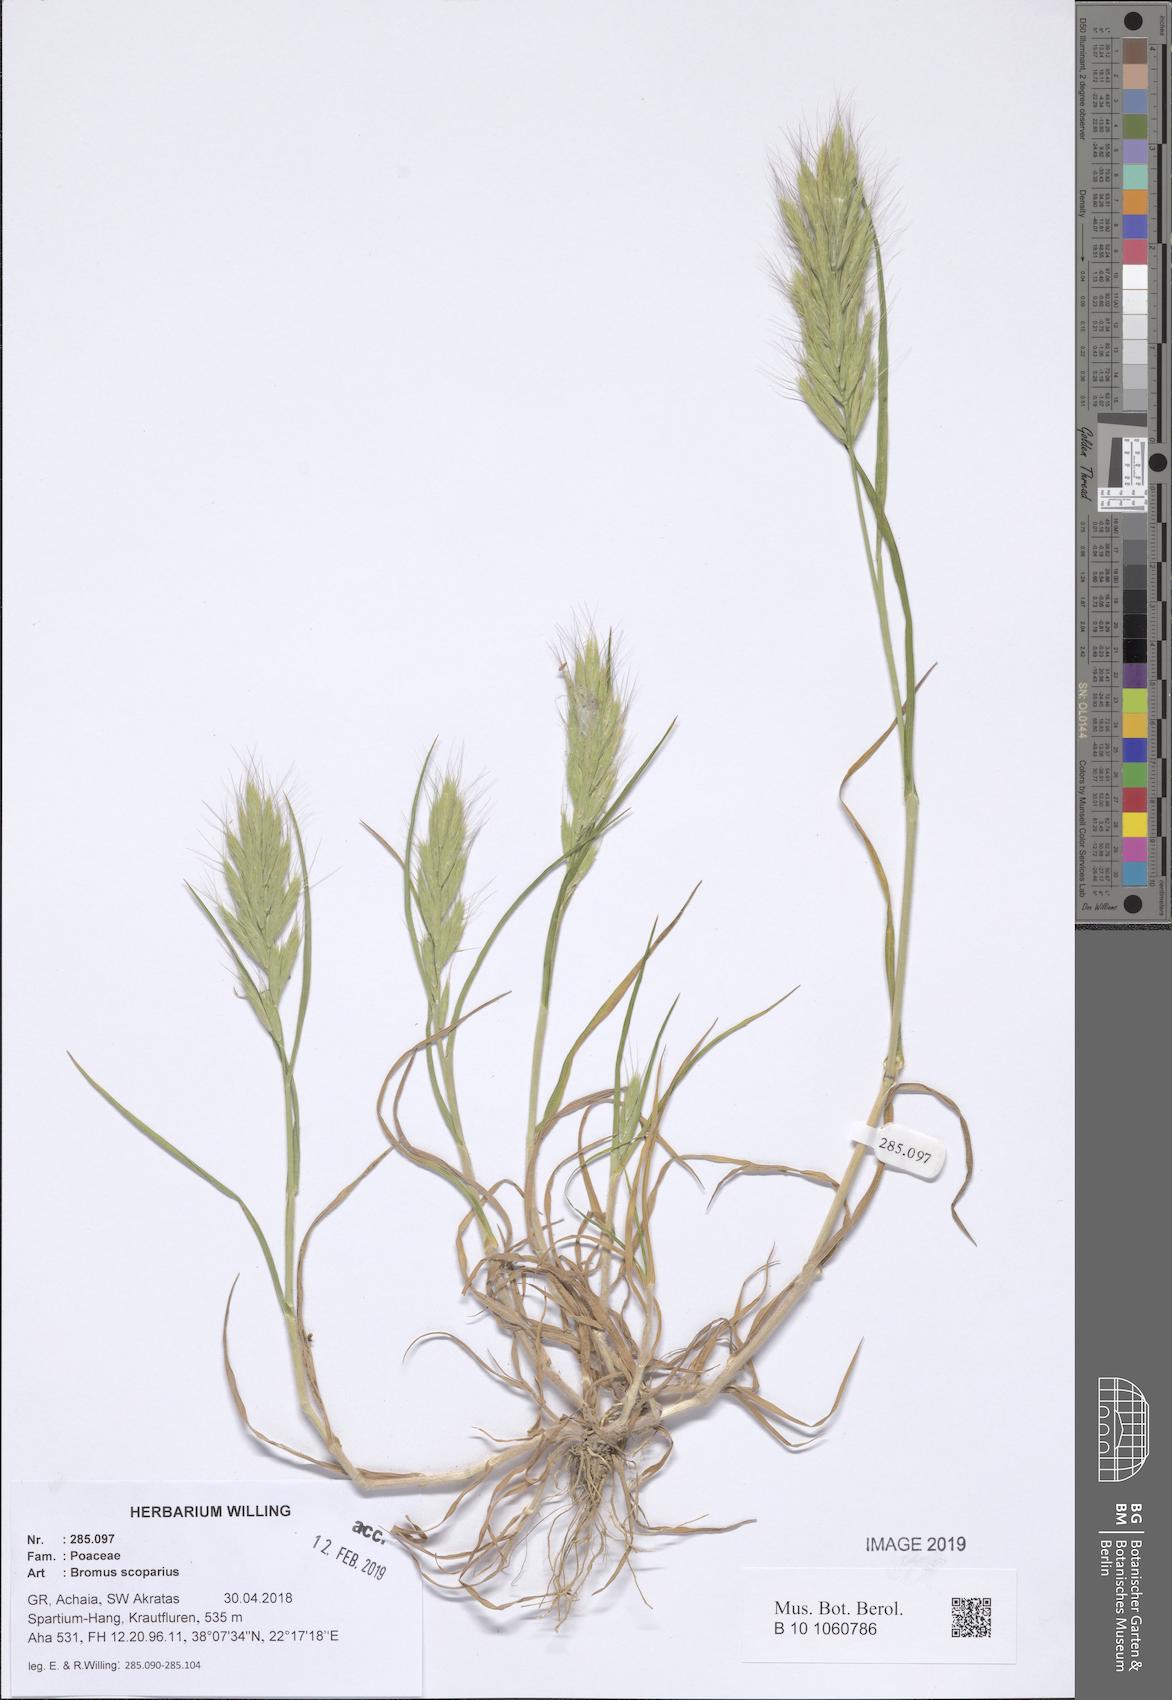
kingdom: Plantae
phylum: Tracheophyta
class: Liliopsida
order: Poales
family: Poaceae
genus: Bromus
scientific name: Bromus scoparius
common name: Broom brome
